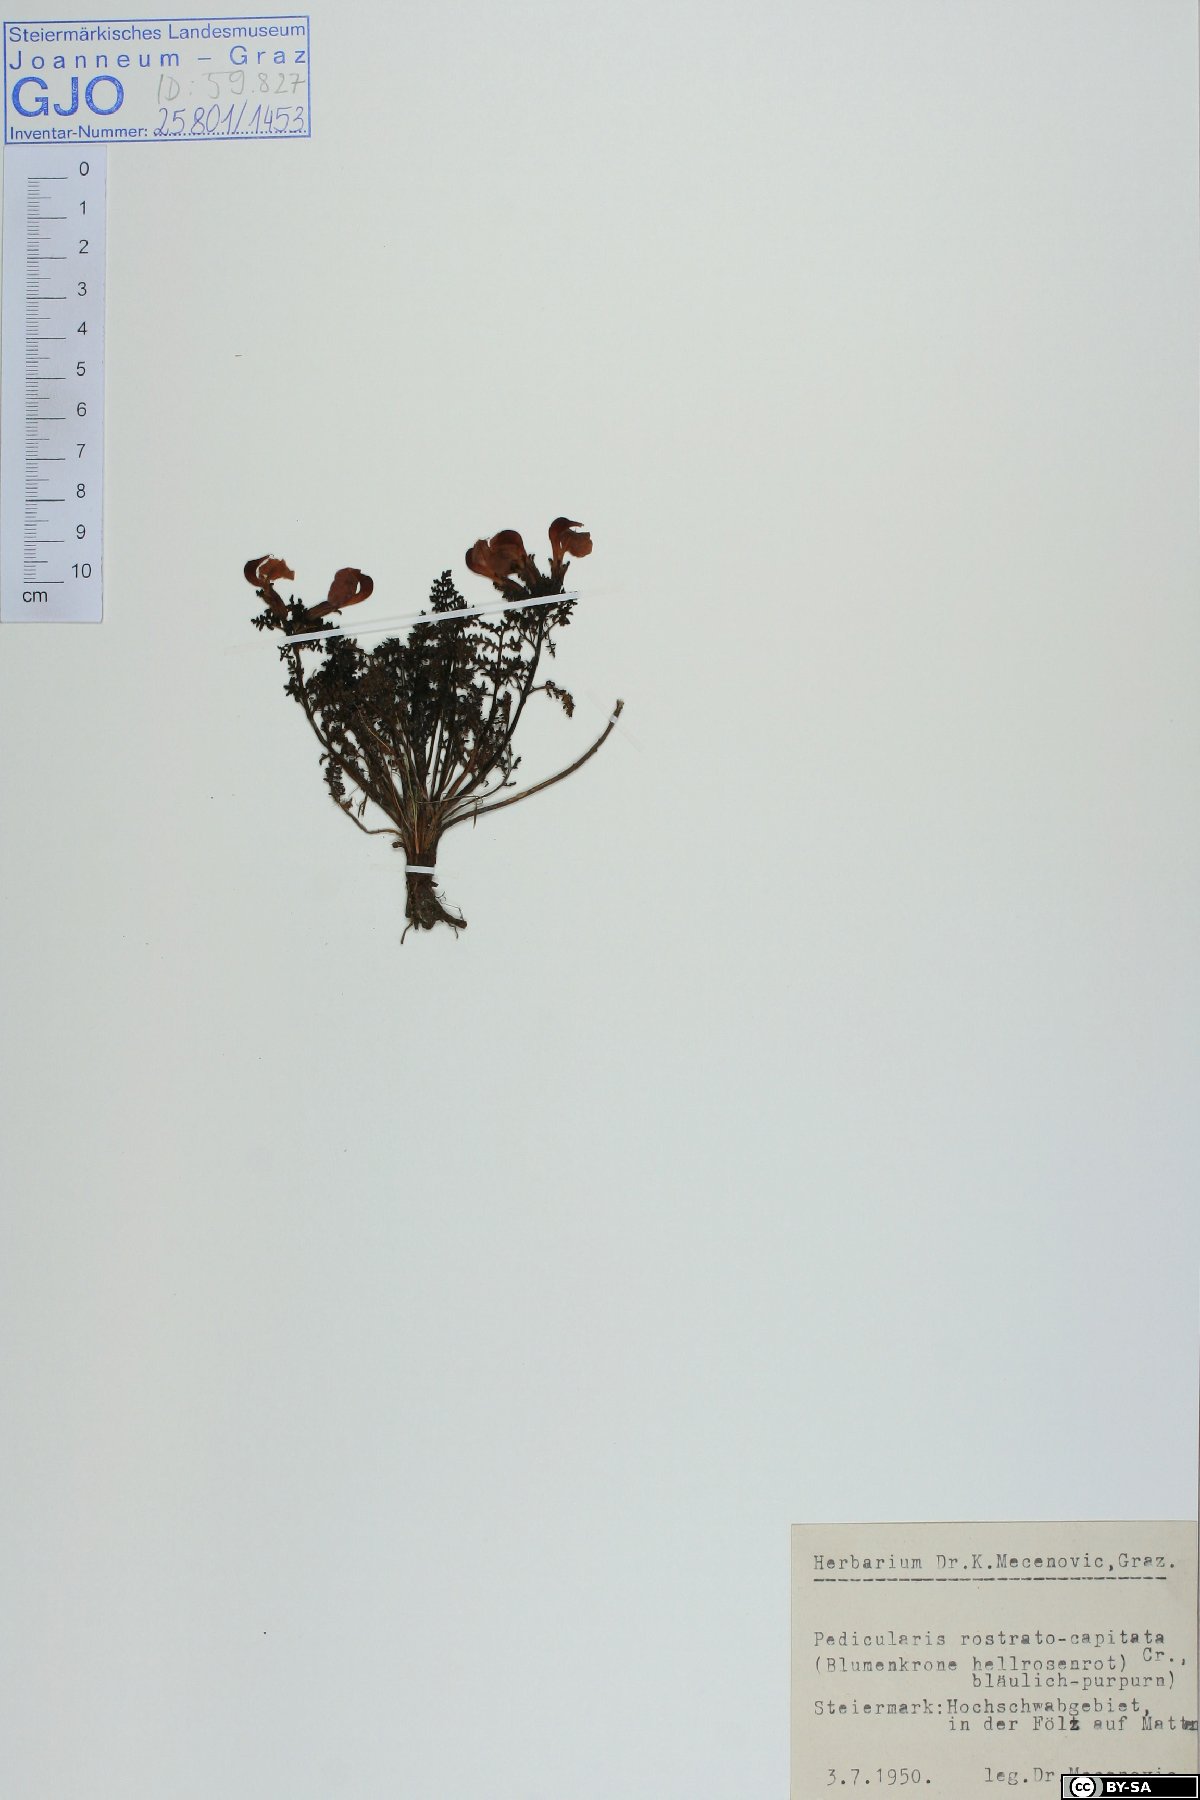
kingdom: Plantae
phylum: Tracheophyta
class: Magnoliopsida
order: Lamiales
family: Orobanchaceae
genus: Pedicularis
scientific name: Pedicularis rostratocapitata
